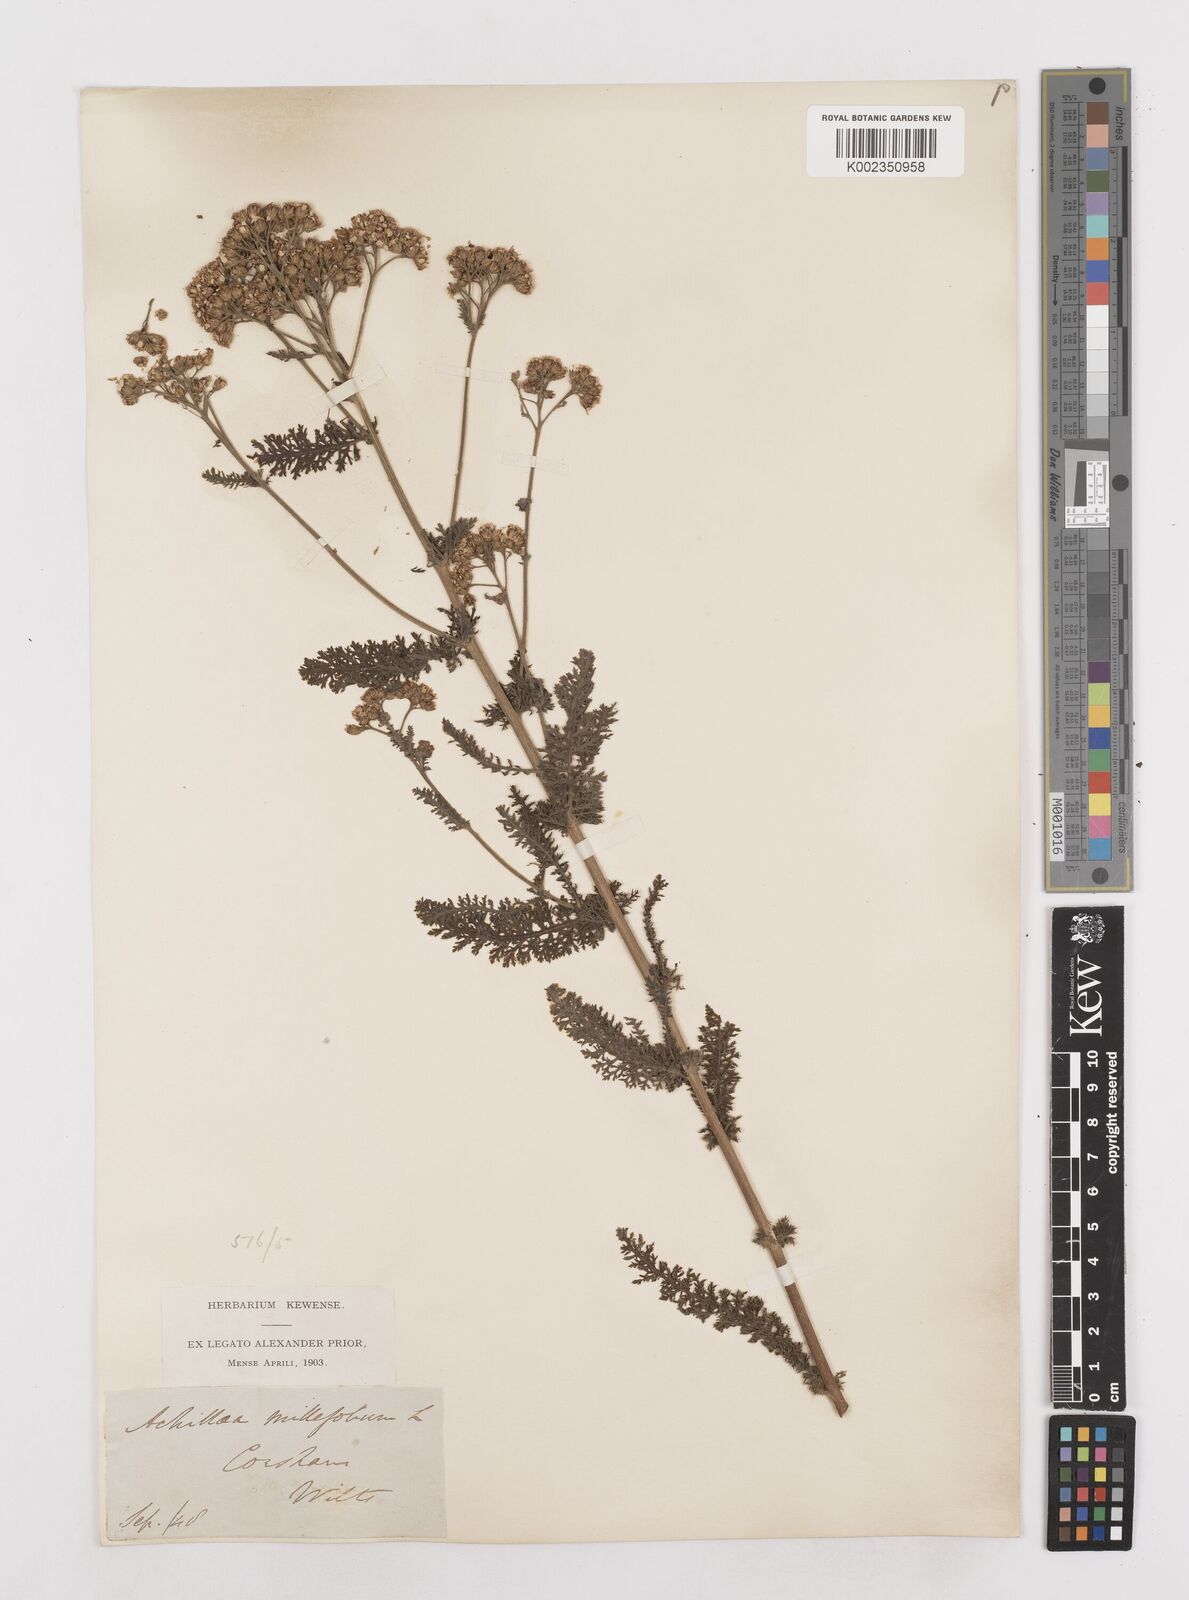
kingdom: Plantae
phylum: Tracheophyta
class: Magnoliopsida
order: Asterales
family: Asteraceae
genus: Achillea
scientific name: Achillea millefolium
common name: Yarrow
